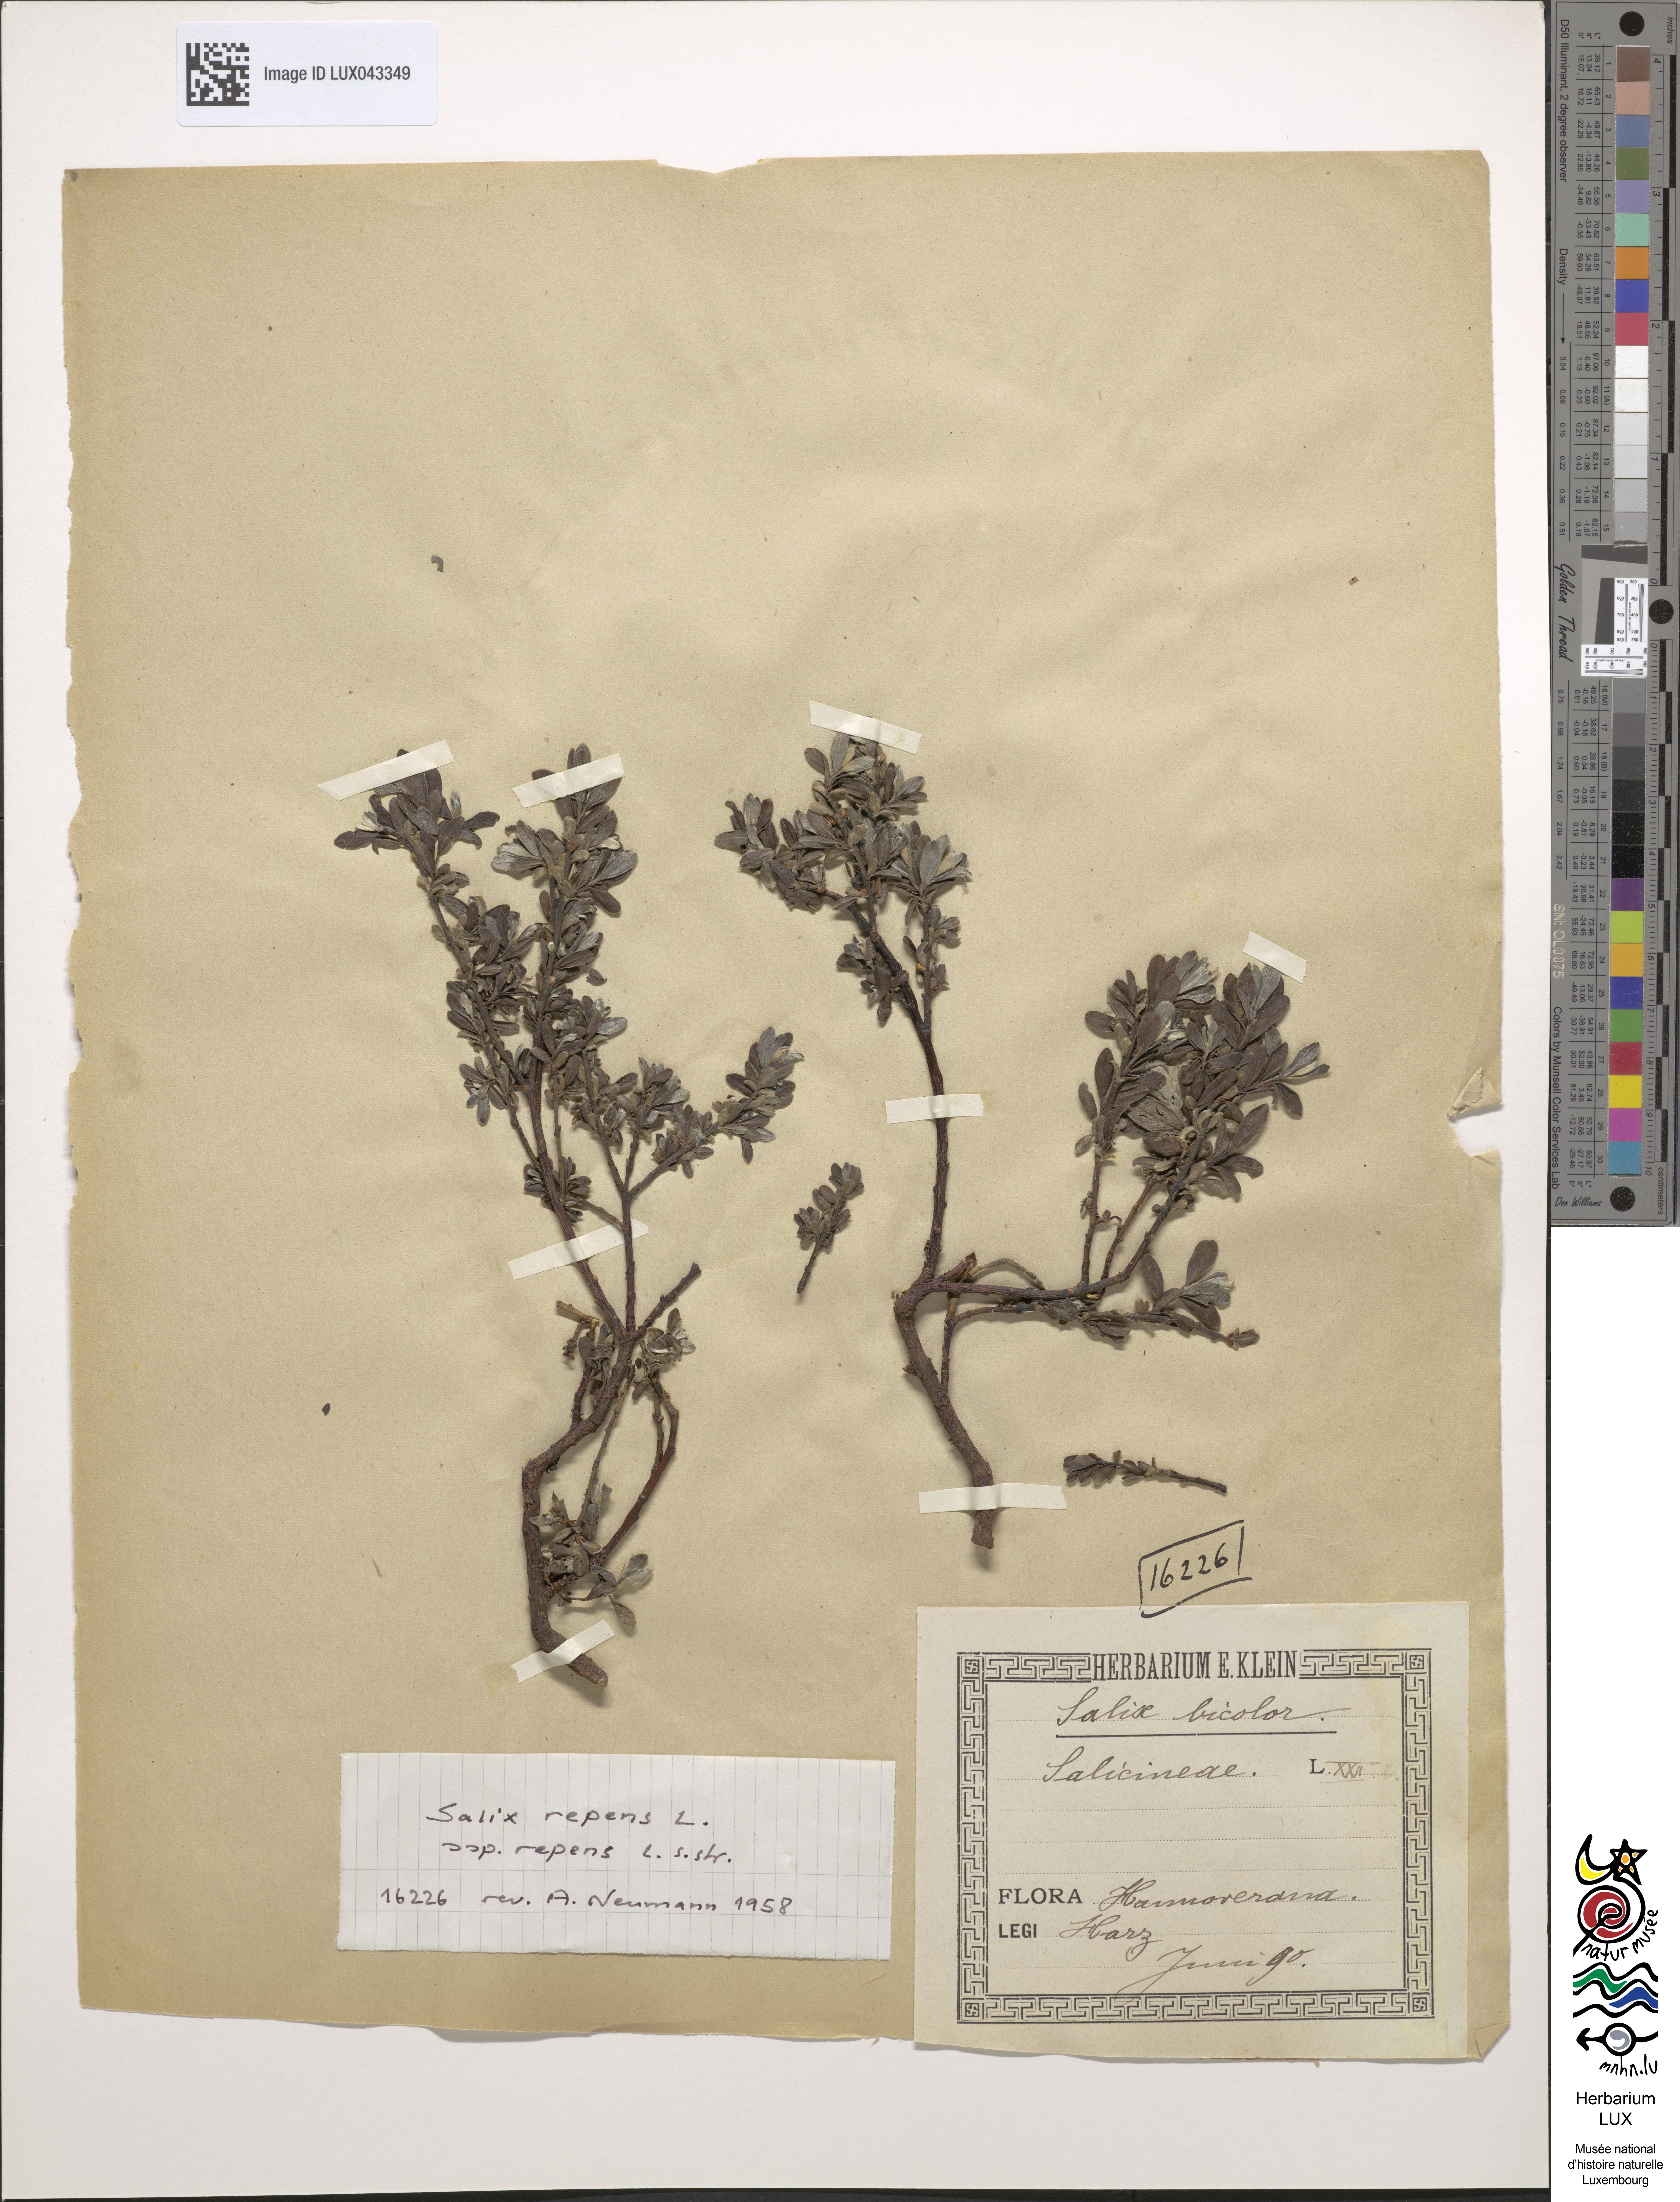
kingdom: Plantae
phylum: Tracheophyta
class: Magnoliopsida
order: Malpighiales
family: Salicaceae
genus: Salix
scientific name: Salix bicolor
